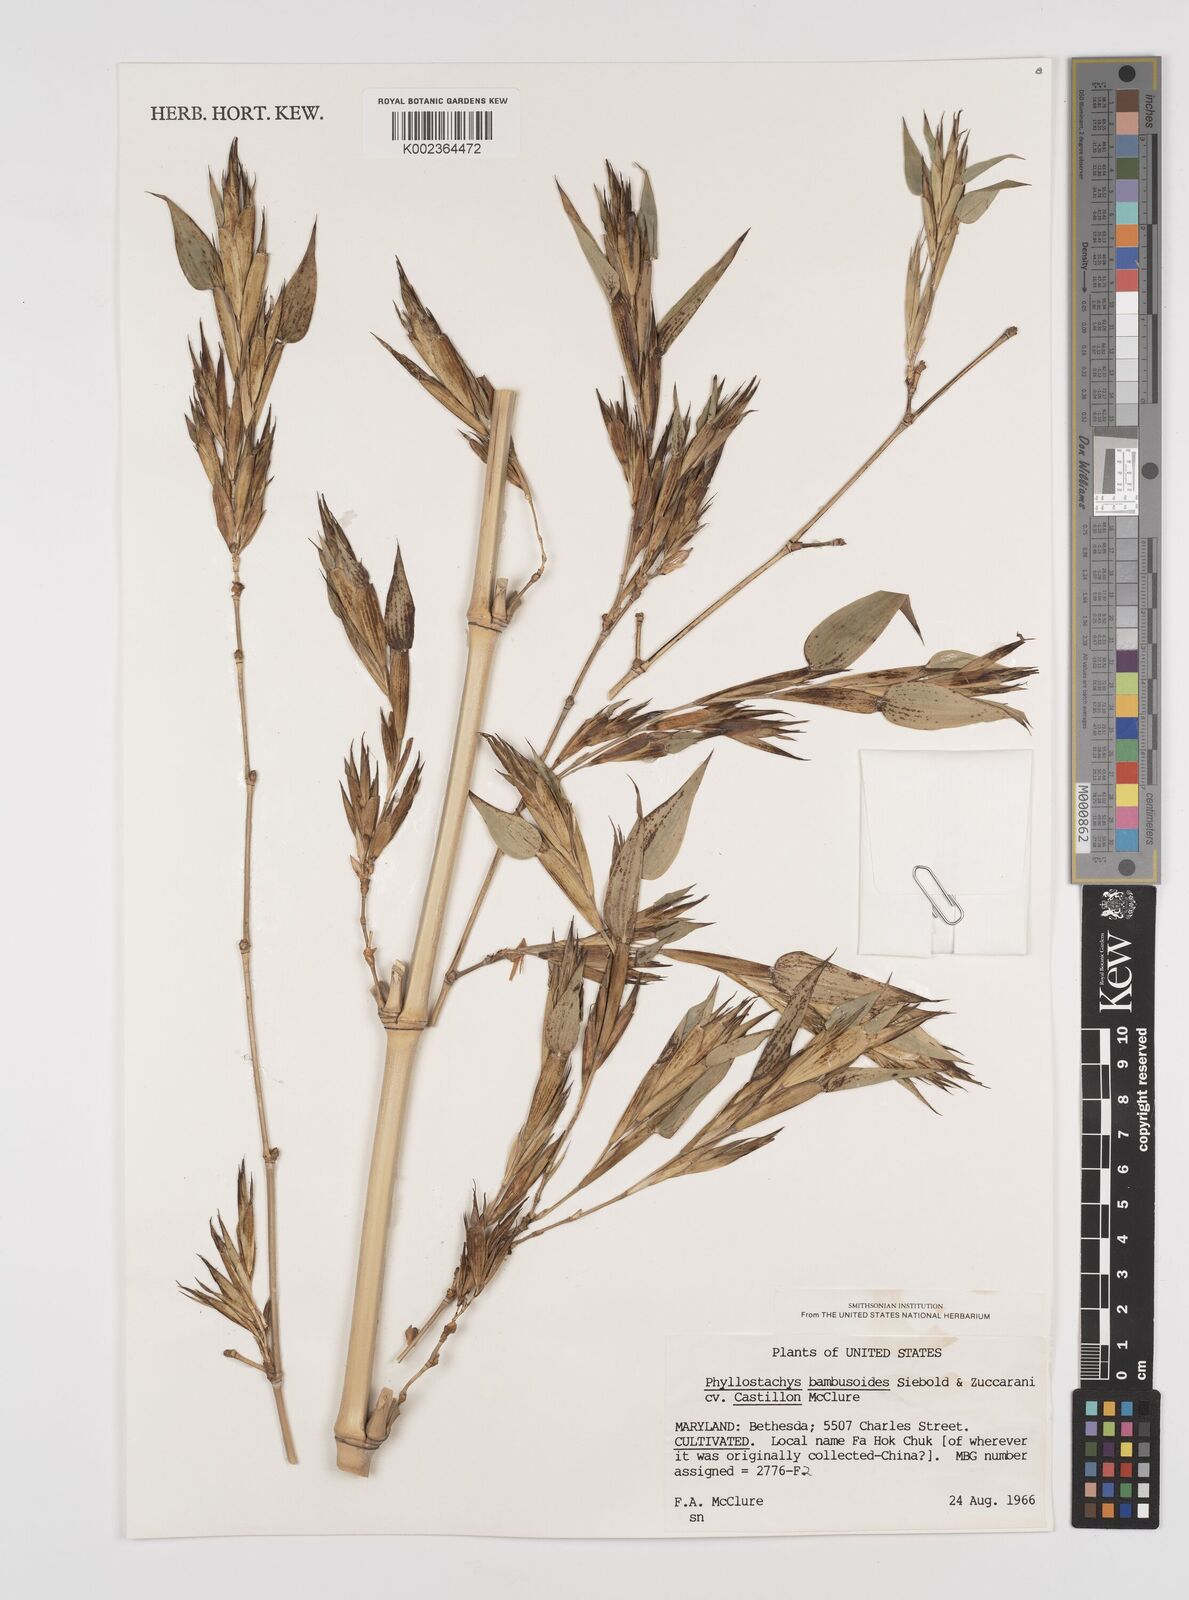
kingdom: Plantae
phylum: Tracheophyta
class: Liliopsida
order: Poales
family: Poaceae
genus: Phyllostachys
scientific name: Phyllostachys
